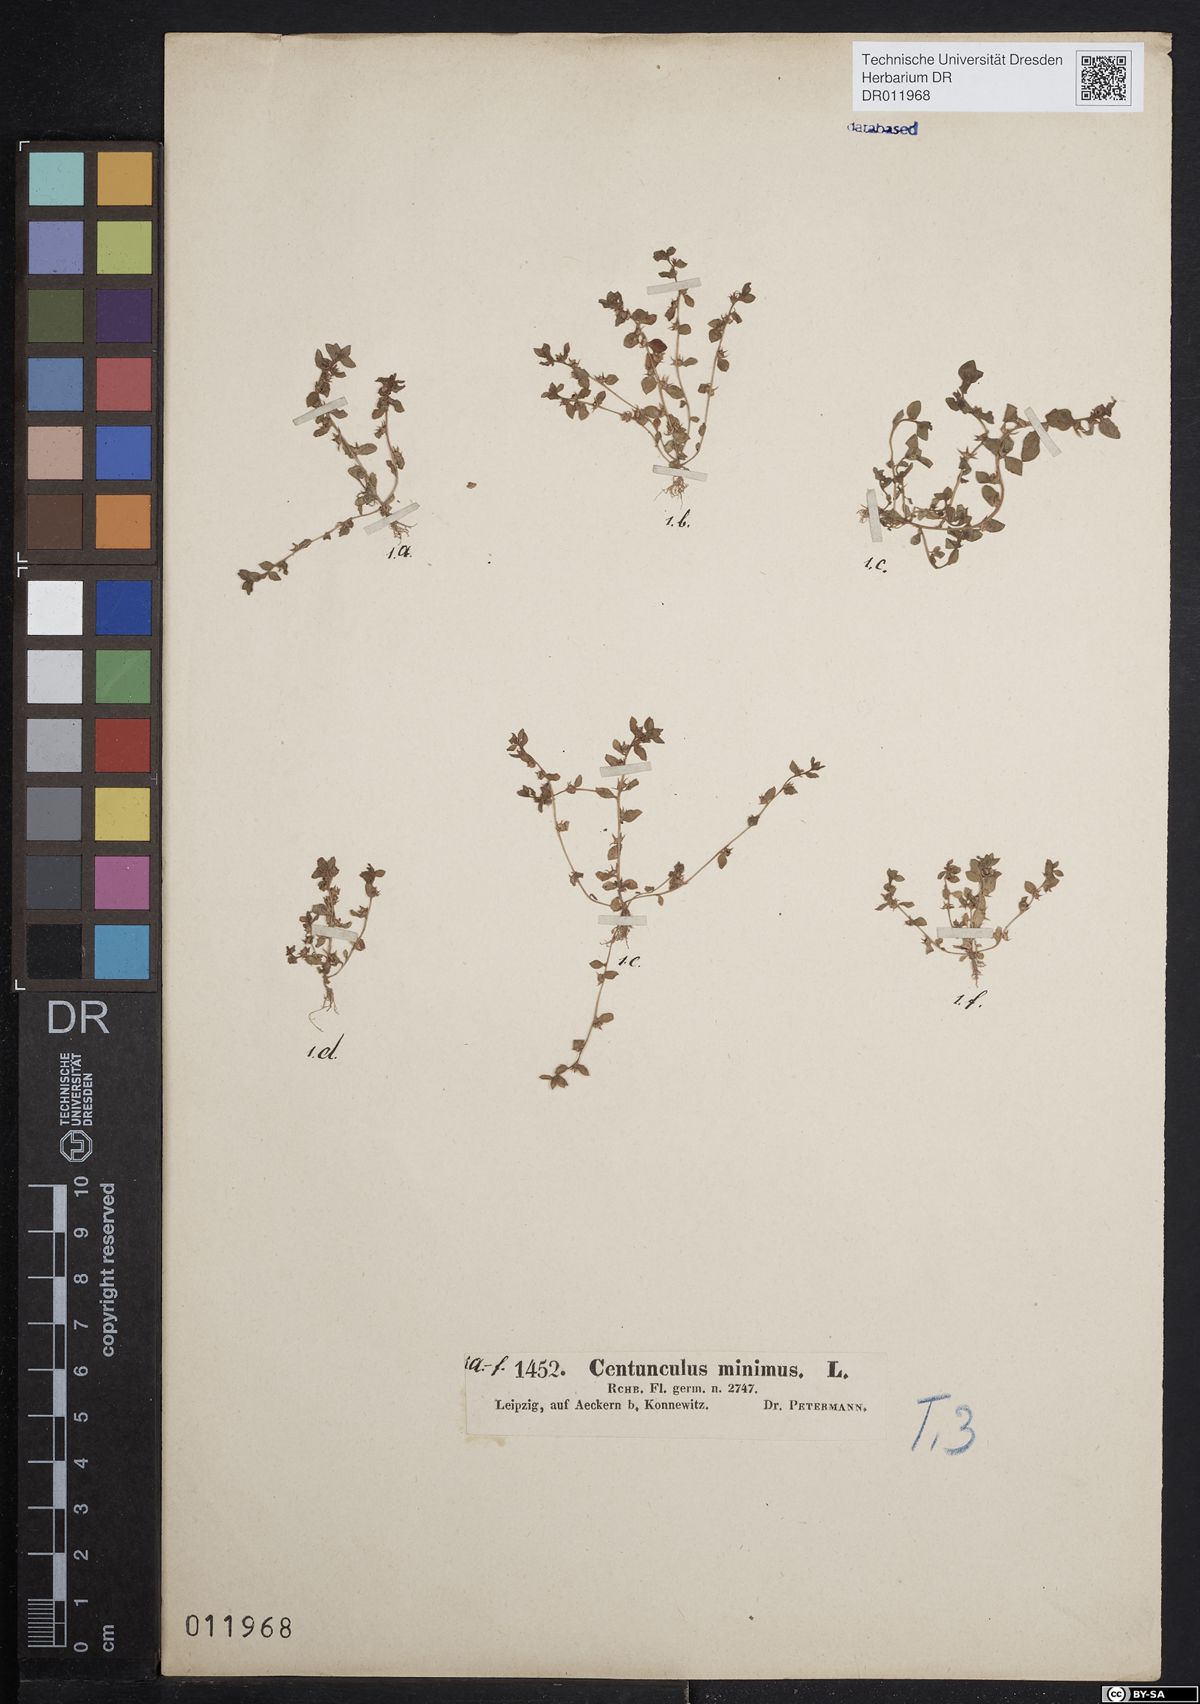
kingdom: Plantae
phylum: Tracheophyta
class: Magnoliopsida
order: Ericales
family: Primulaceae
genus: Lysimachia
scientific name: Lysimachia minima
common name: Chaffweed
